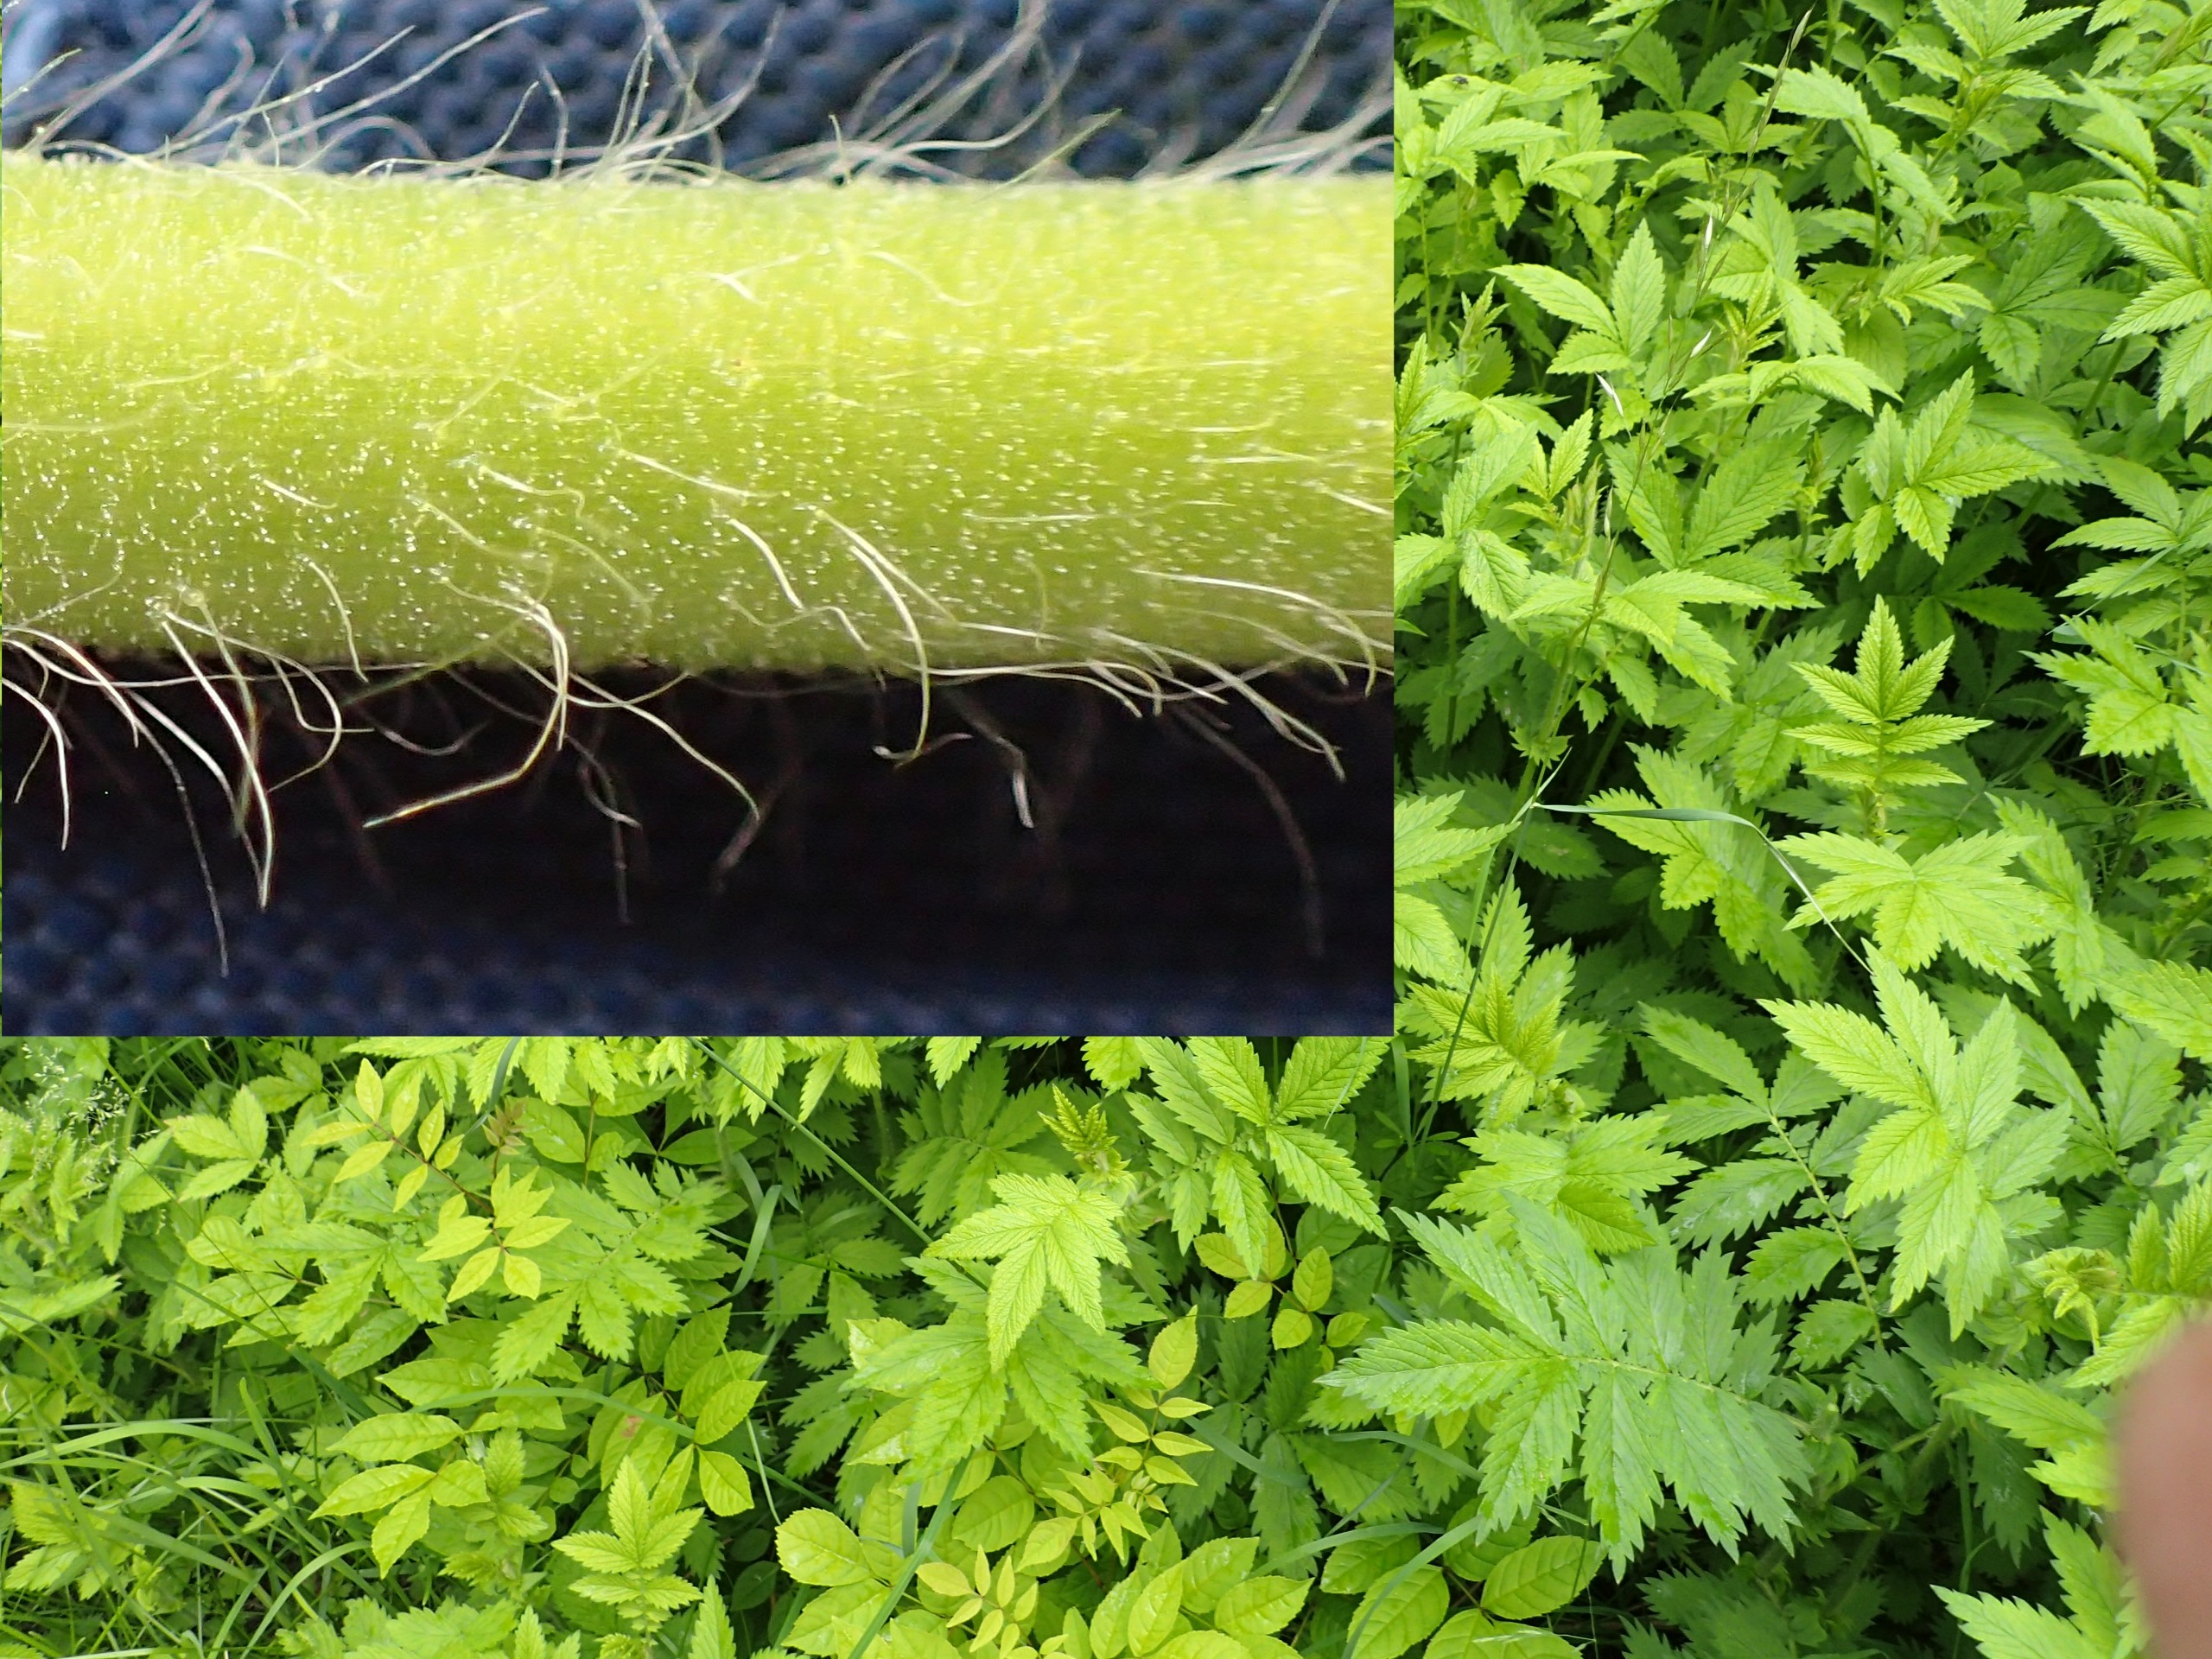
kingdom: Plantae
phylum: Tracheophyta
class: Magnoliopsida
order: Rosales
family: Rosaceae
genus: Agrimonia
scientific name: Agrimonia procera
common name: Vellugtende agermåne
